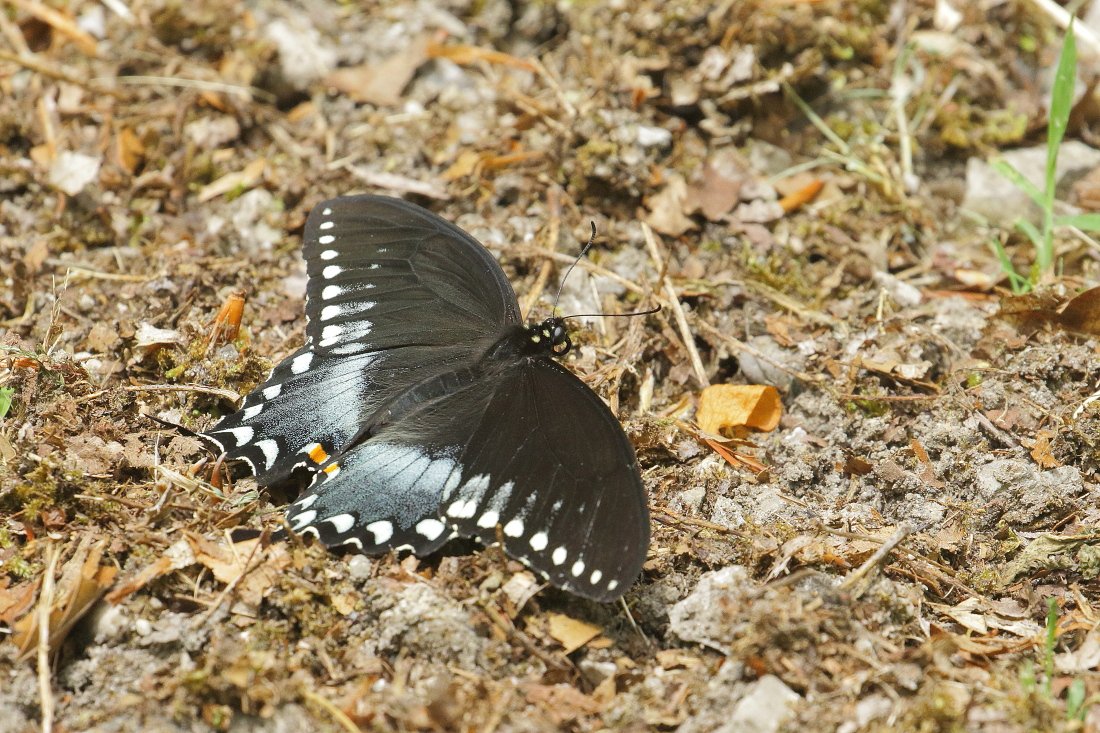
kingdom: Animalia
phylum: Arthropoda
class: Insecta
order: Lepidoptera
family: Papilionidae
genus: Pterourus
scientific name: Pterourus troilus
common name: Spicebush Swallowtail
